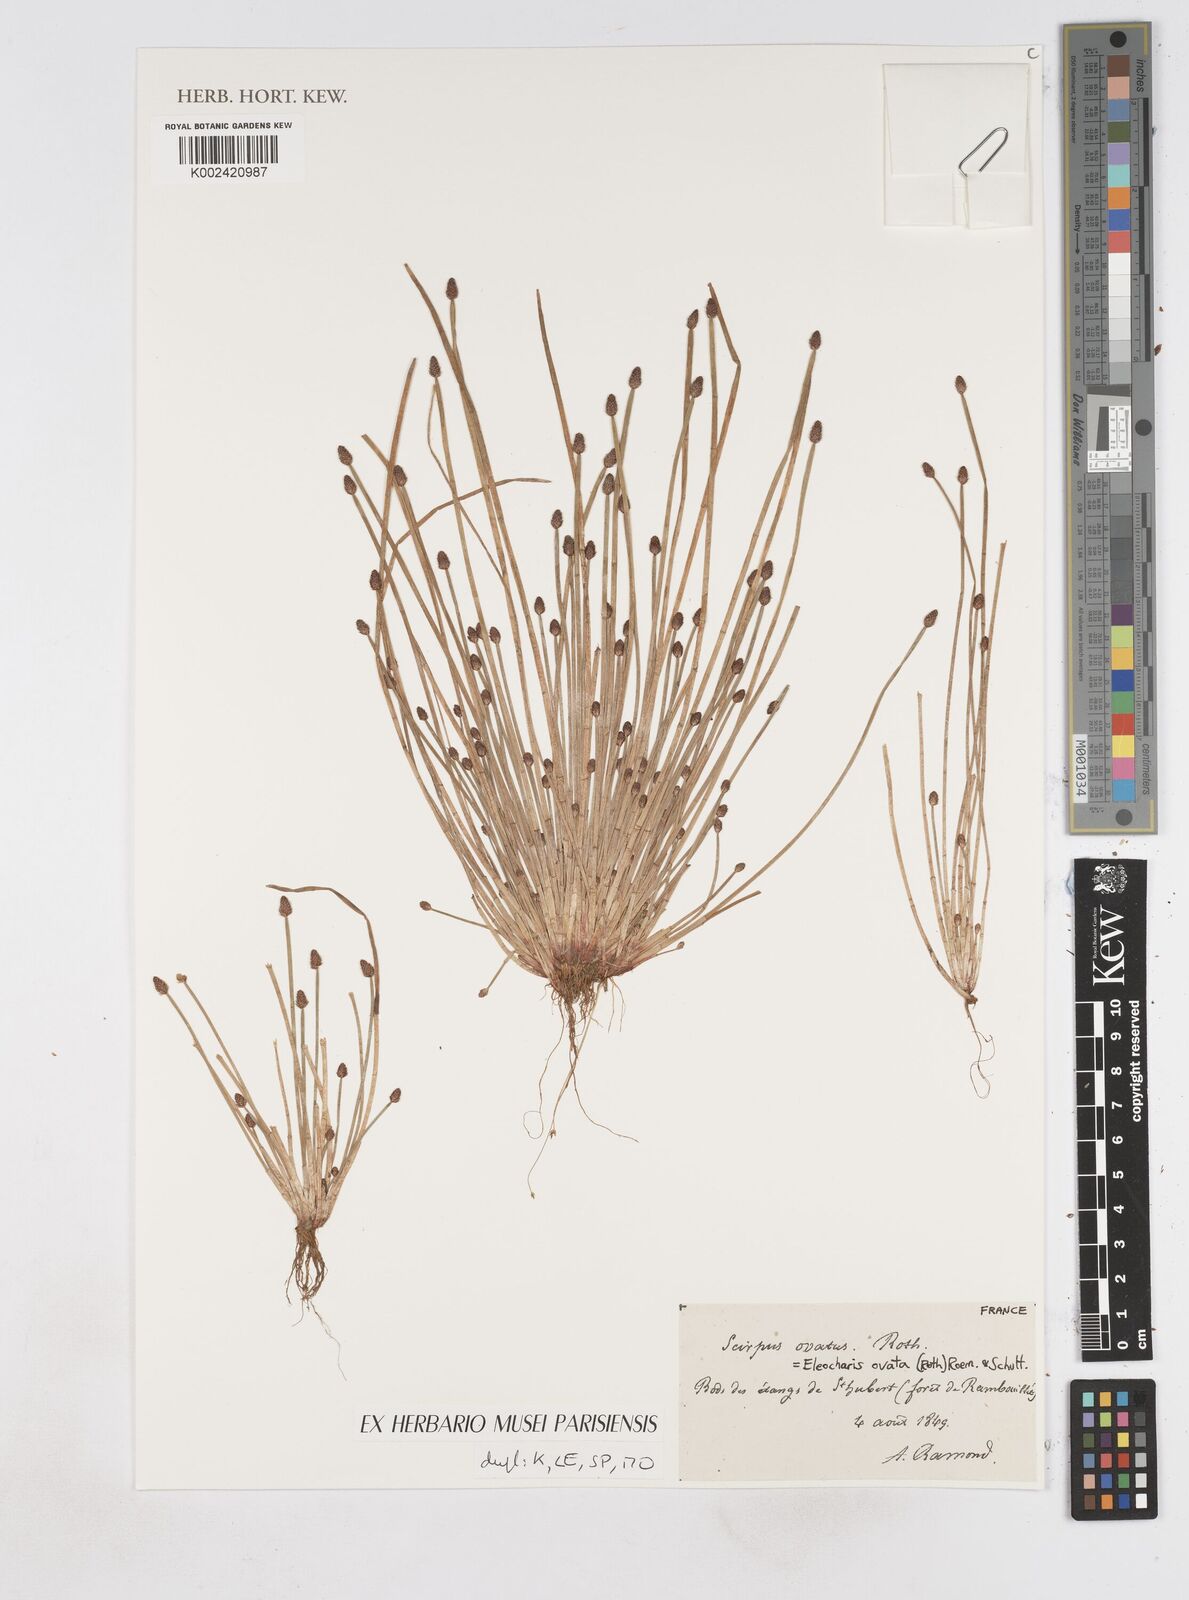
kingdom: Plantae
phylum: Tracheophyta
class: Liliopsida
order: Poales
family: Cyperaceae
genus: Eleocharis
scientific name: Eleocharis ovata
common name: Oval spike-rush
